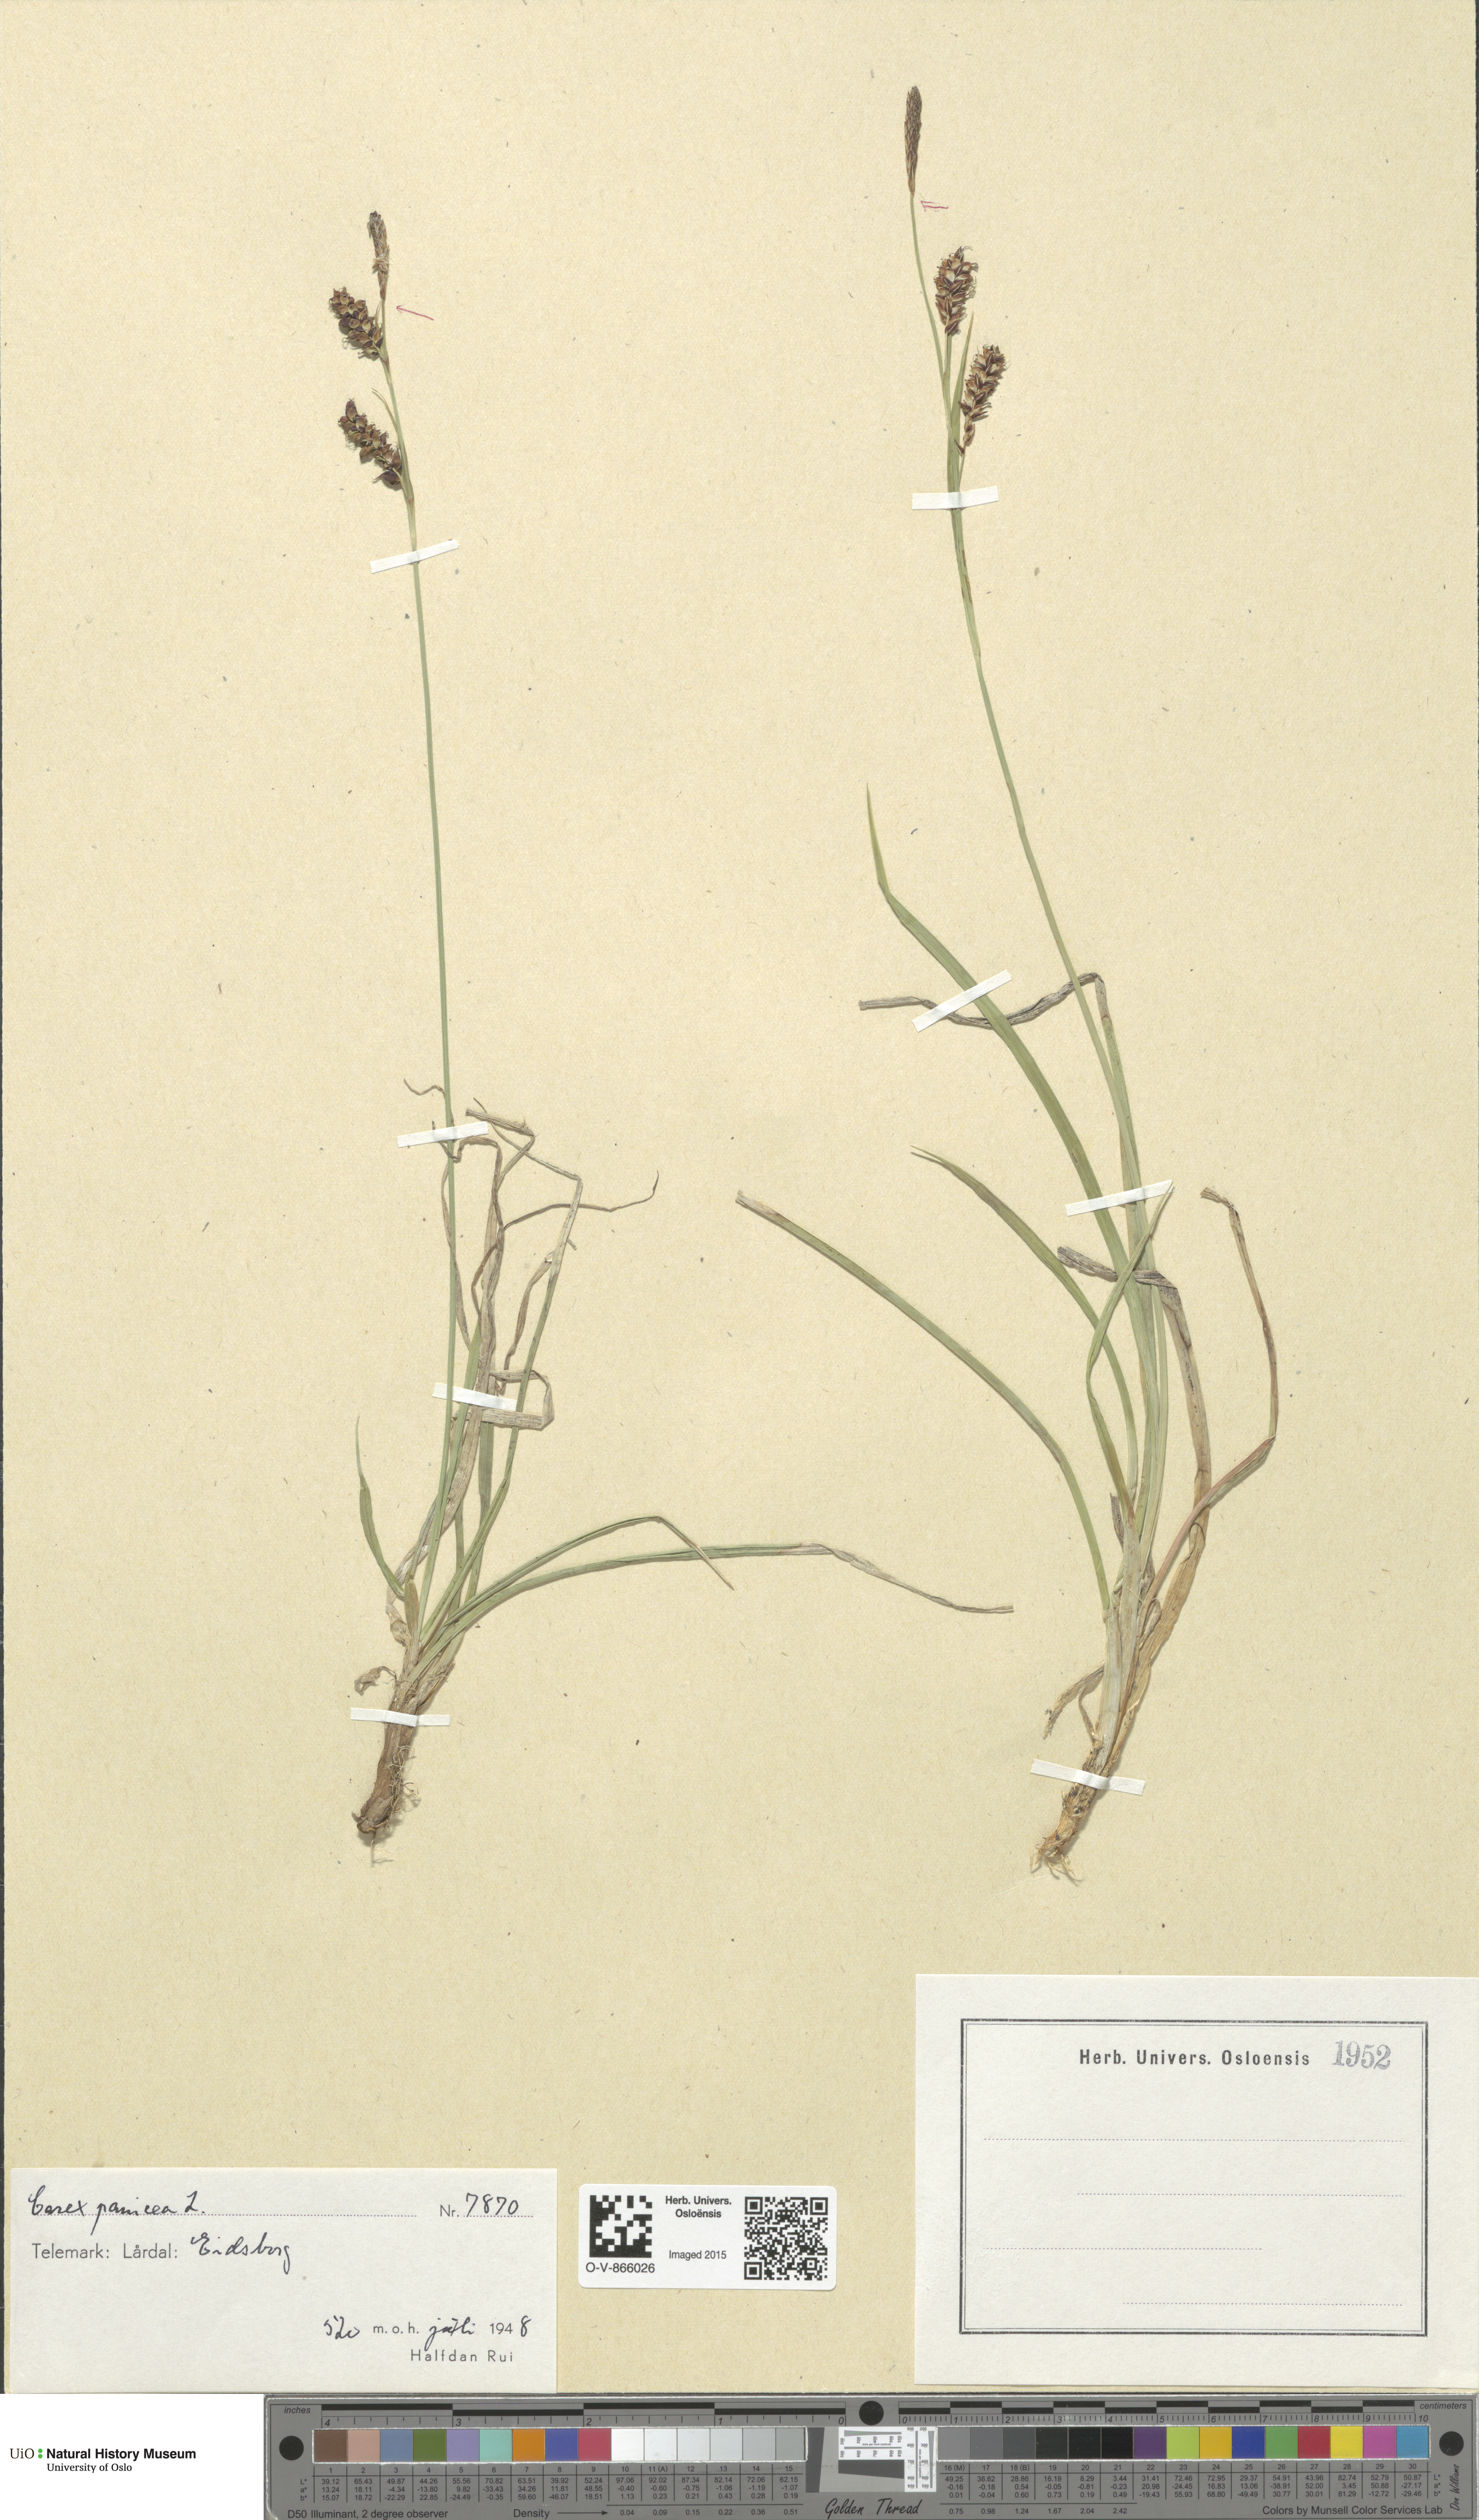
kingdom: Plantae
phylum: Tracheophyta
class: Liliopsida
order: Poales
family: Cyperaceae
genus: Carex
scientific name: Carex panicea
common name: Carnation sedge
